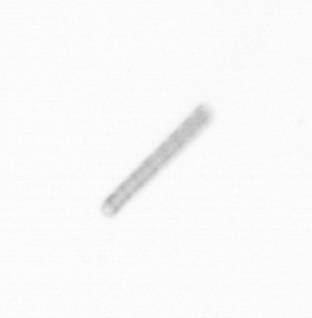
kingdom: Chromista
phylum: Ochrophyta
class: Bacillariophyceae
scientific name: Bacillariophyceae
